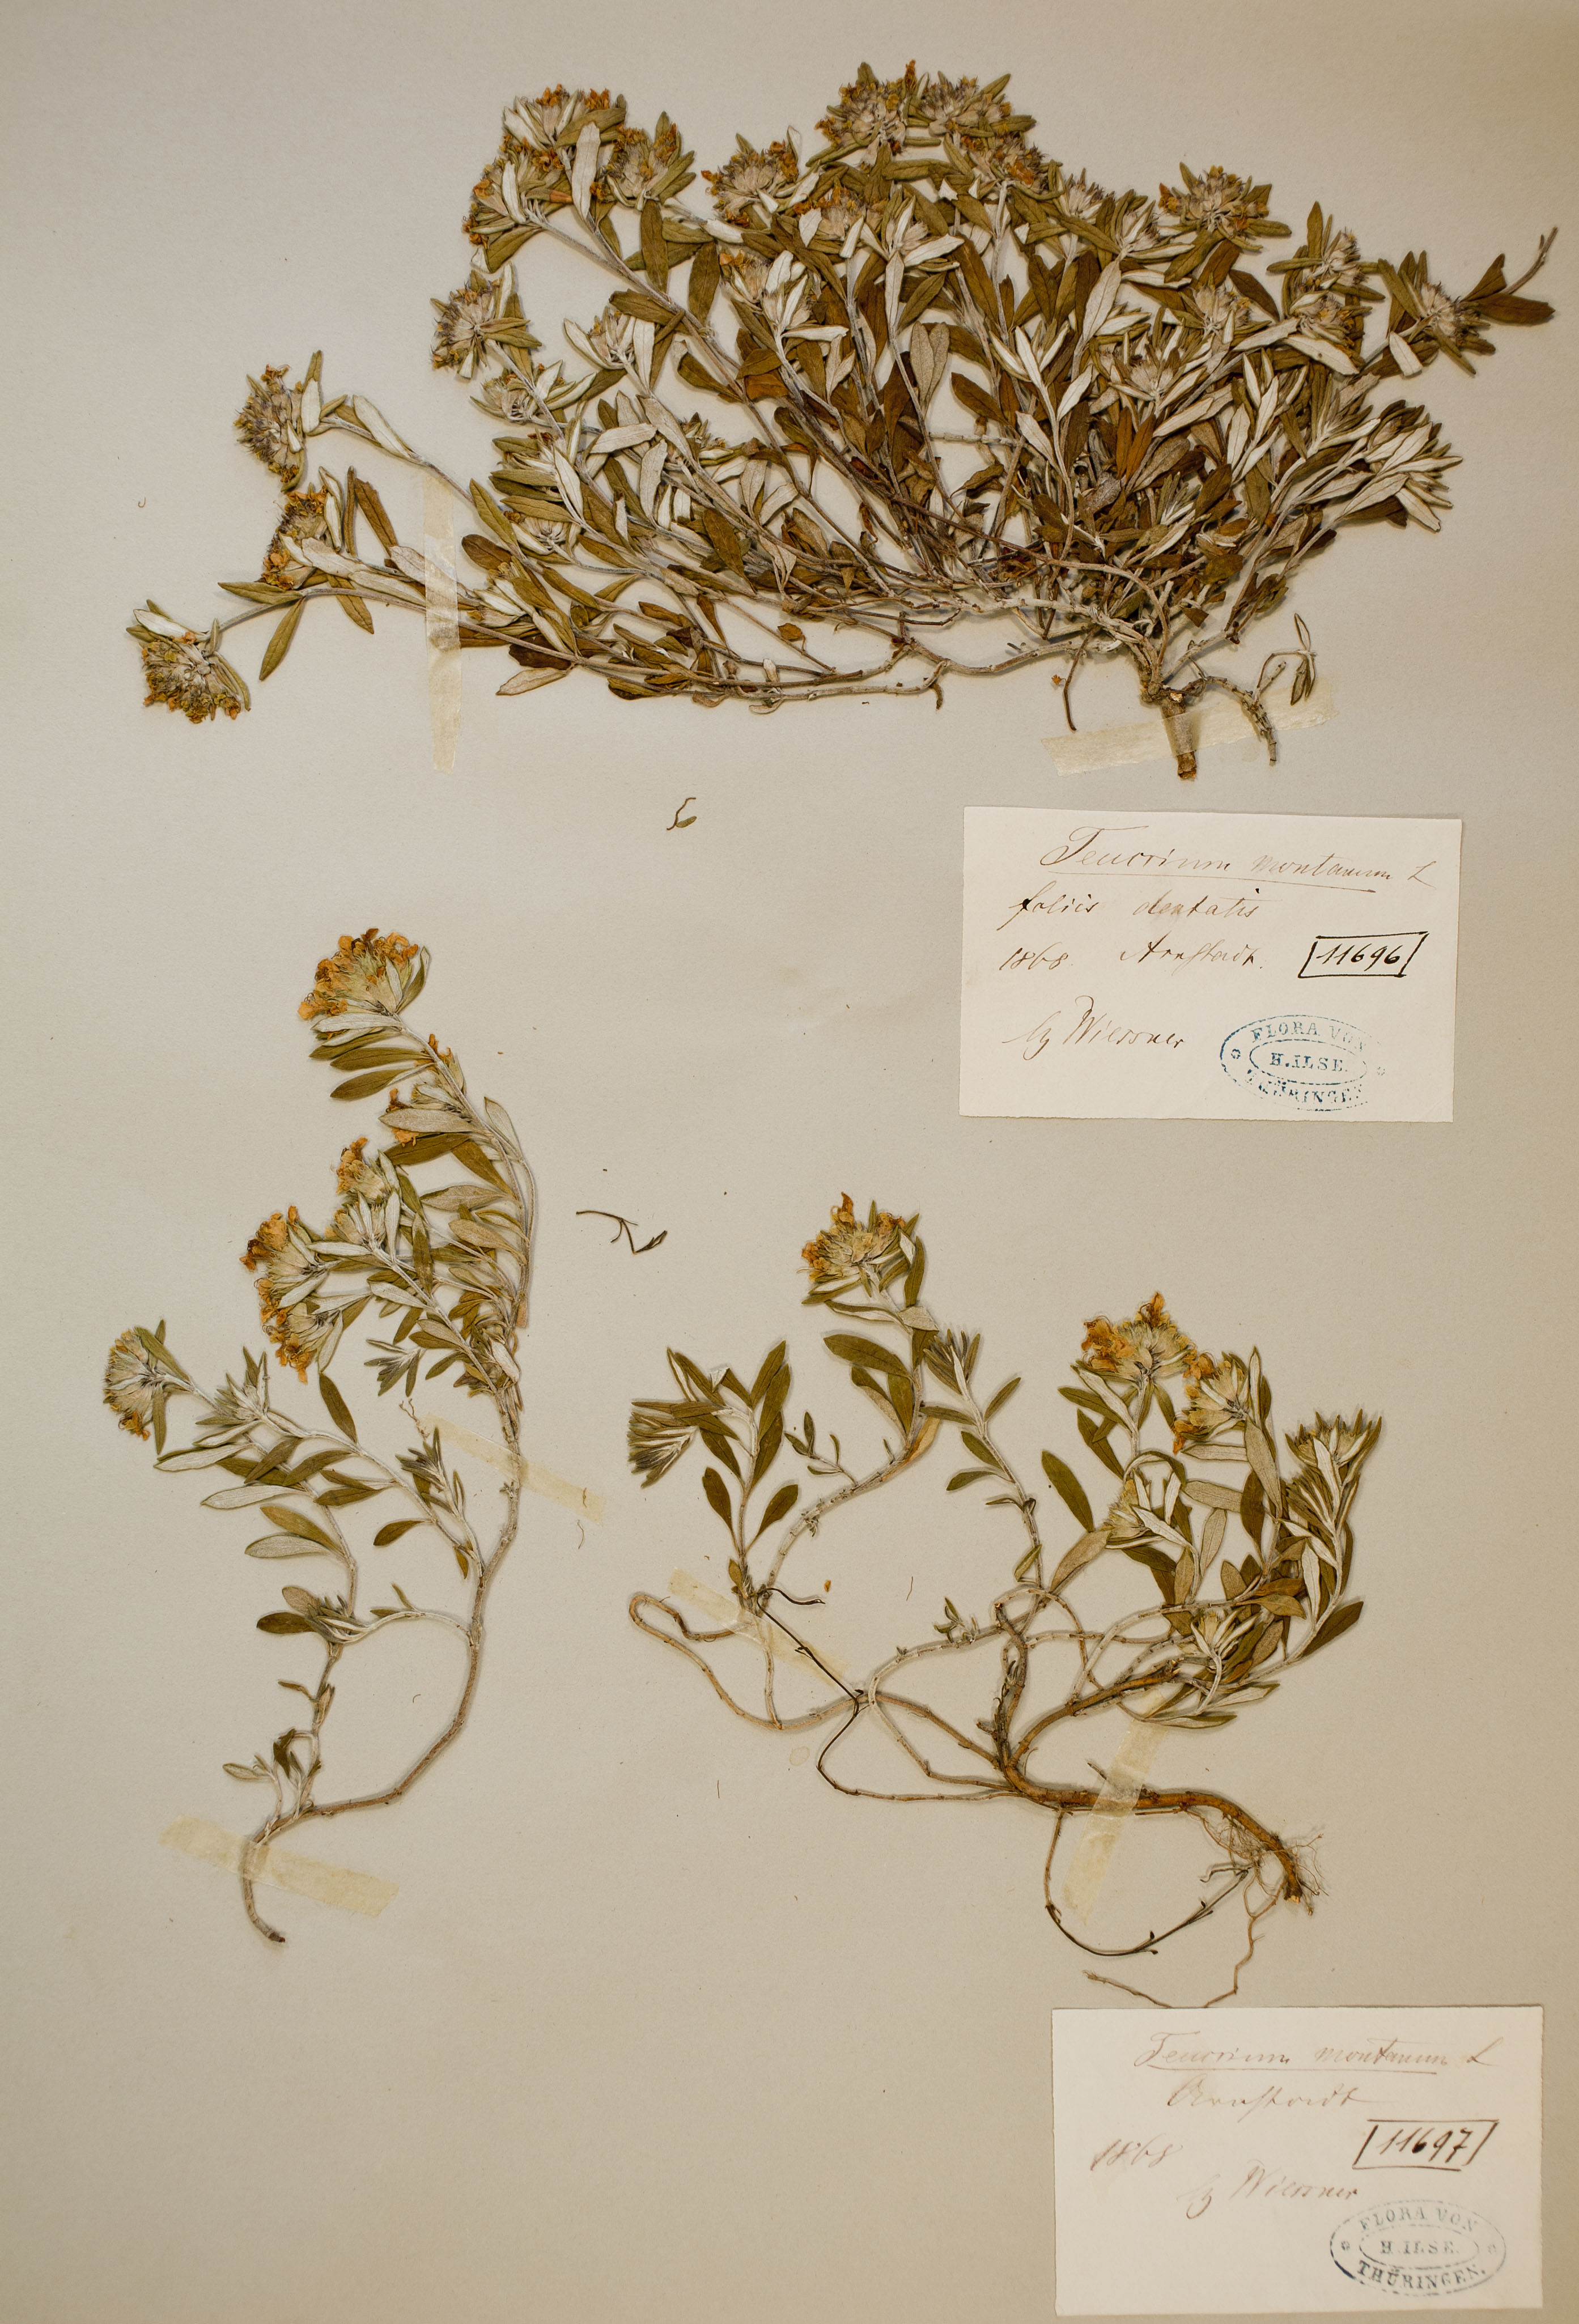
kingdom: Plantae
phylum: Tracheophyta
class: Magnoliopsida
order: Lamiales
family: Lamiaceae
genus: Teucrium
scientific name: Teucrium montanum
